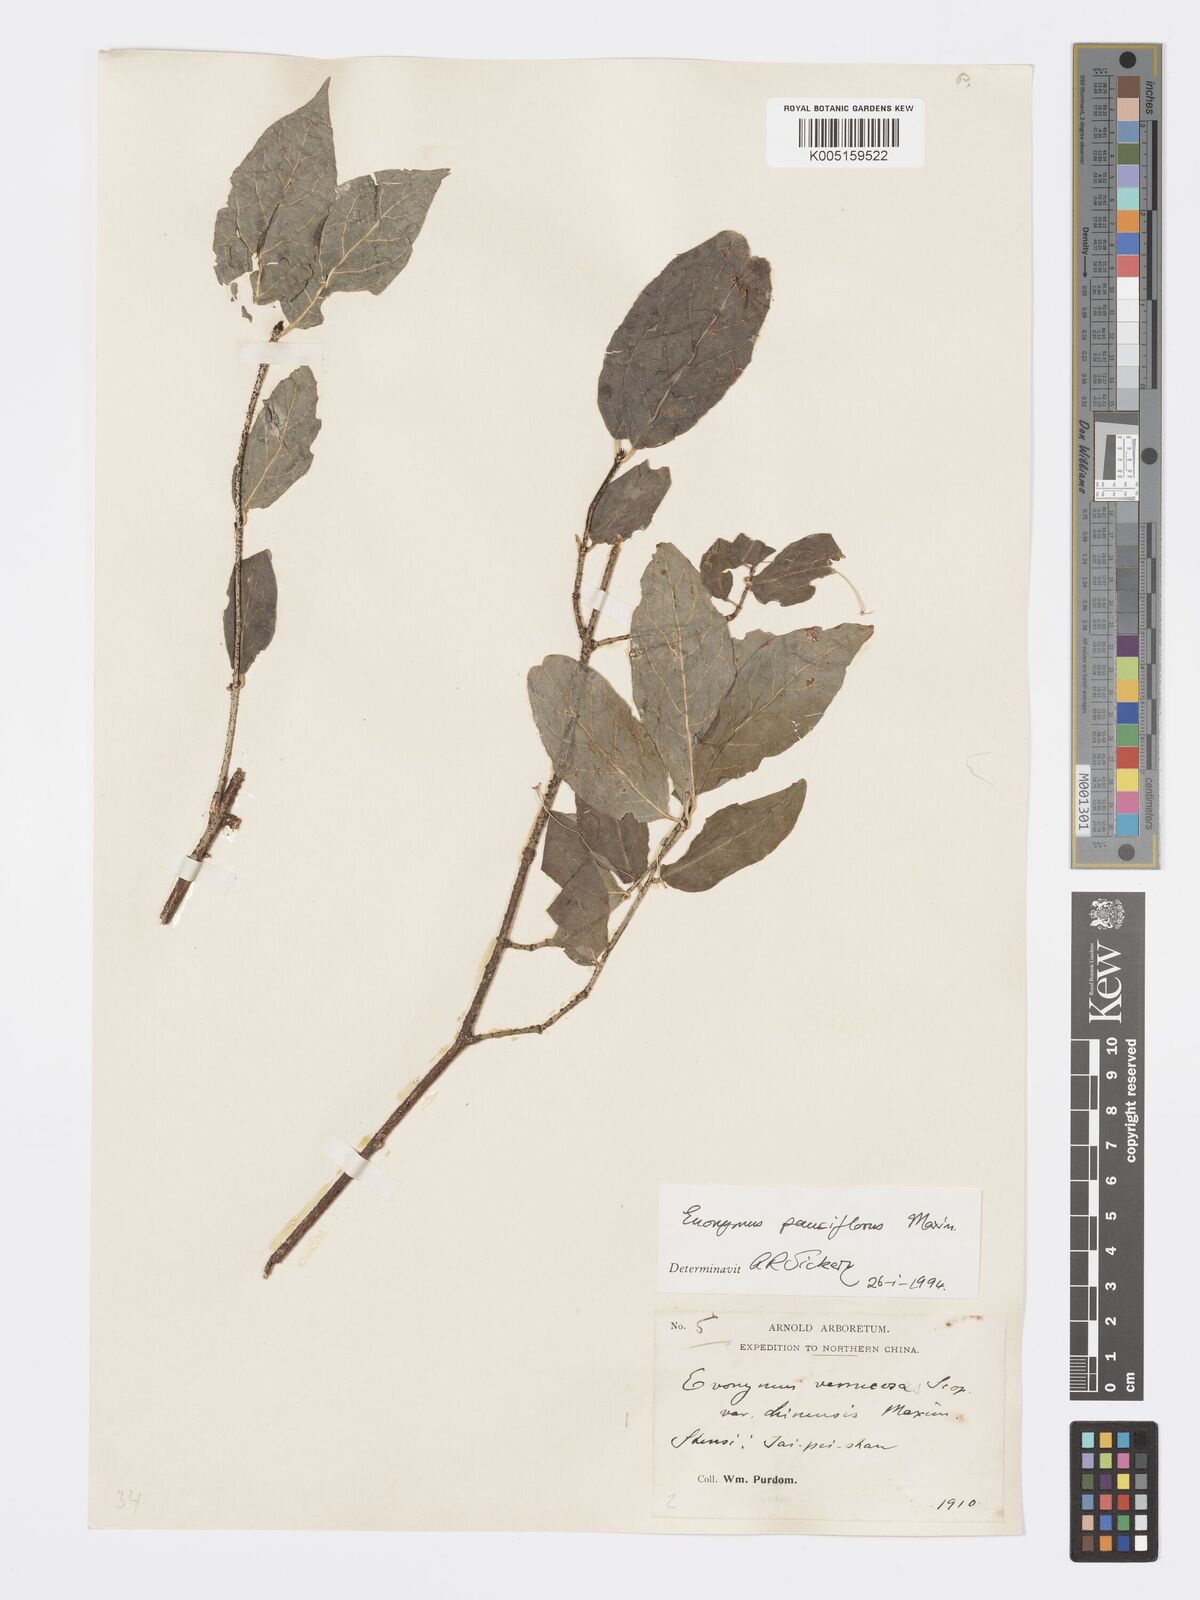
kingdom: Plantae
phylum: Tracheophyta
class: Magnoliopsida
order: Celastrales
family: Celastraceae
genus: Euonymus
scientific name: Euonymus verrucosus
